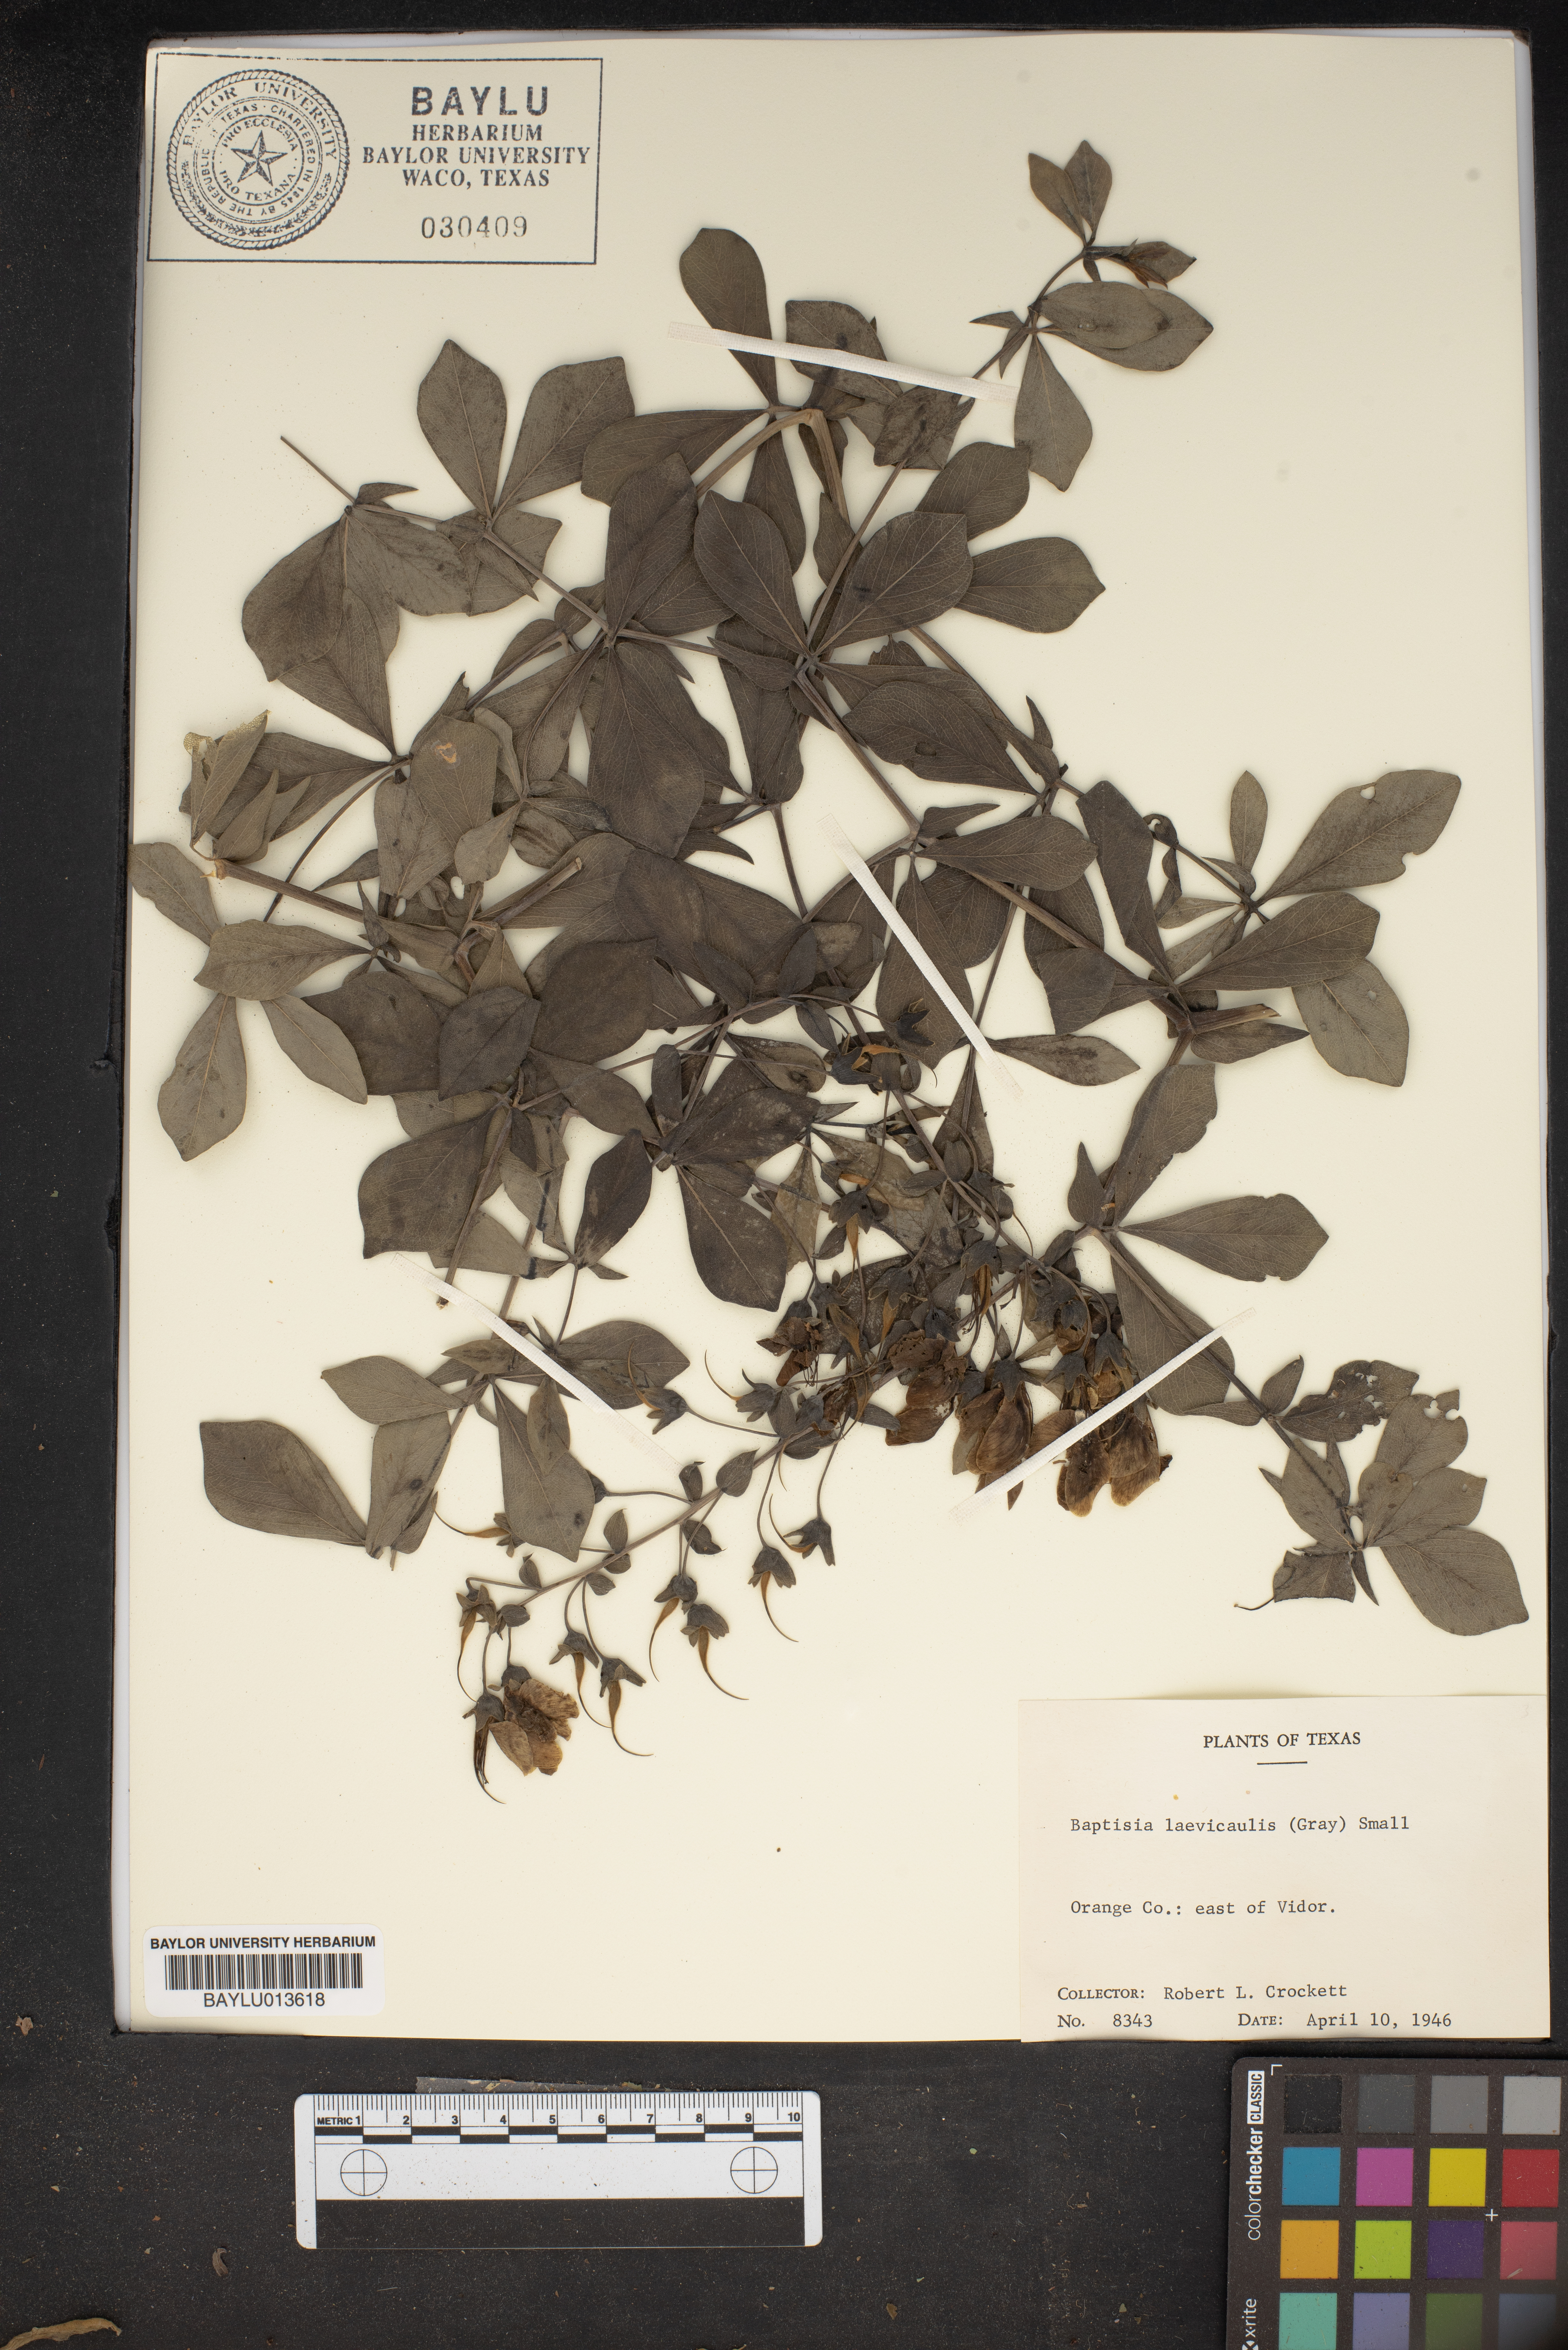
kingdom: Plantae
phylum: Tracheophyta
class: Magnoliopsida
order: Fabales
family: Fabaceae
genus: Baptisia
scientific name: Baptisia bracteata
